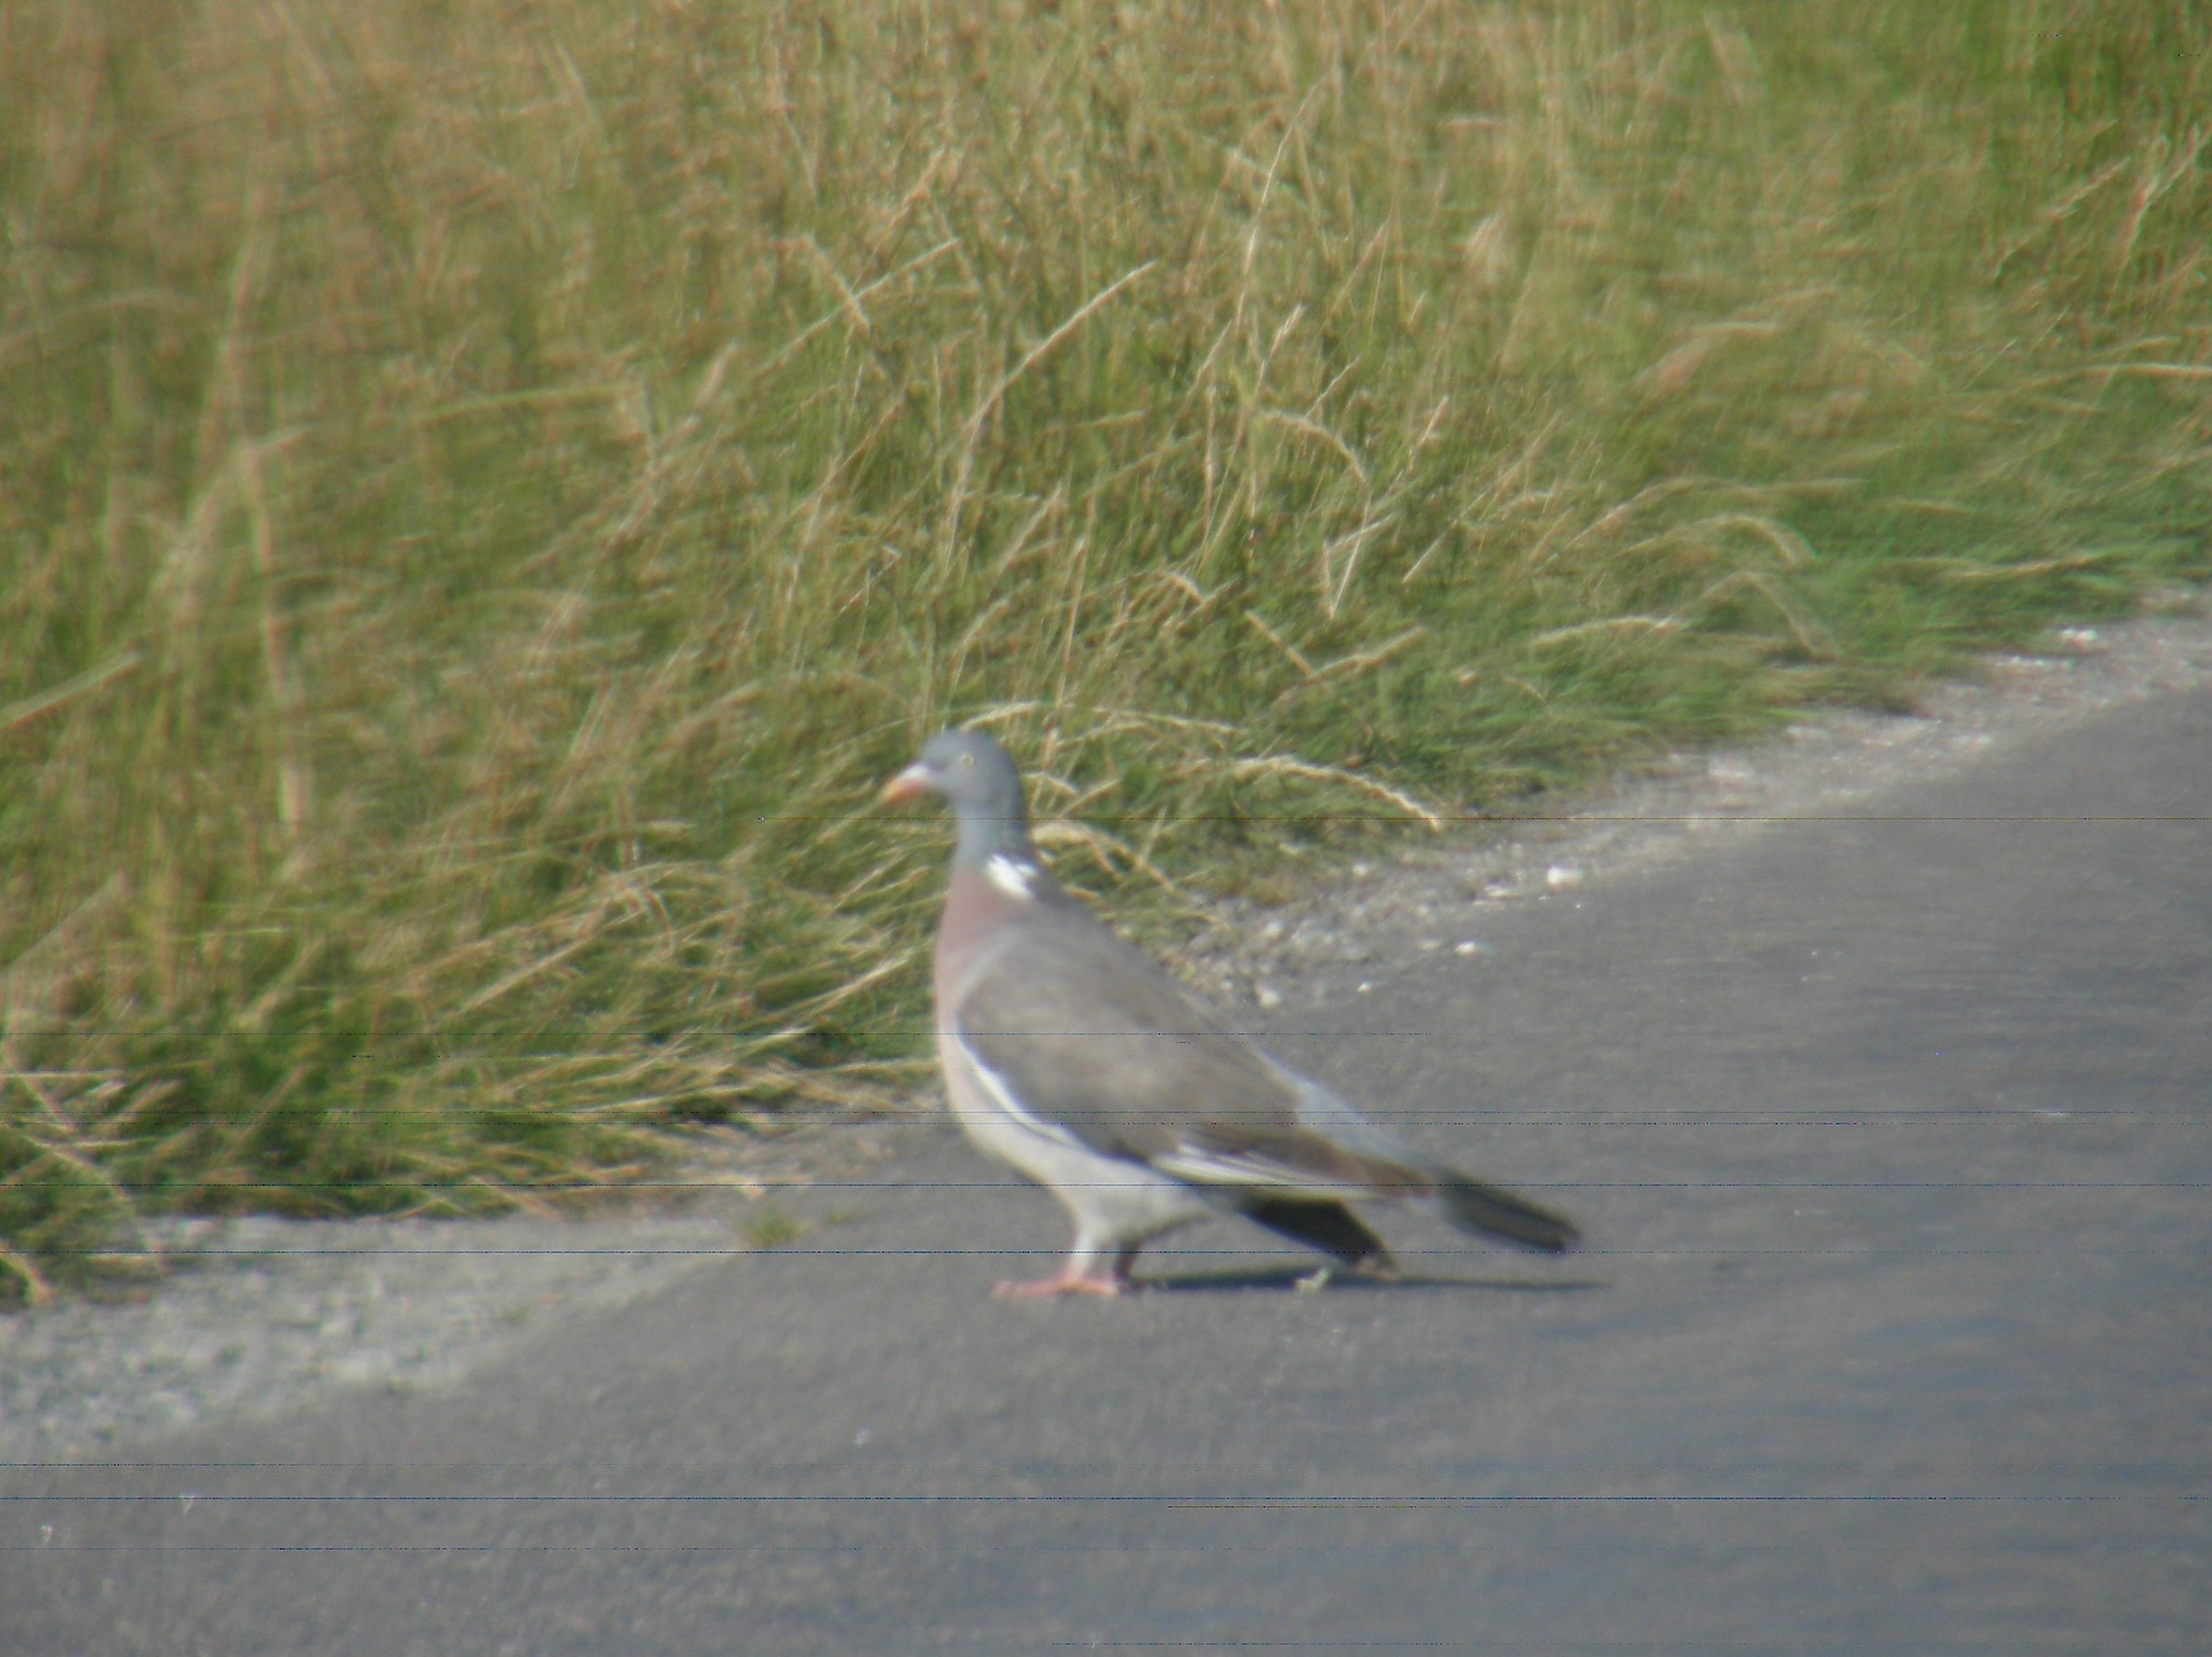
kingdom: Animalia
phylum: Chordata
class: Aves
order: Columbiformes
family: Columbidae
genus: Columba
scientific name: Columba palumbus
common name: Ringdue
